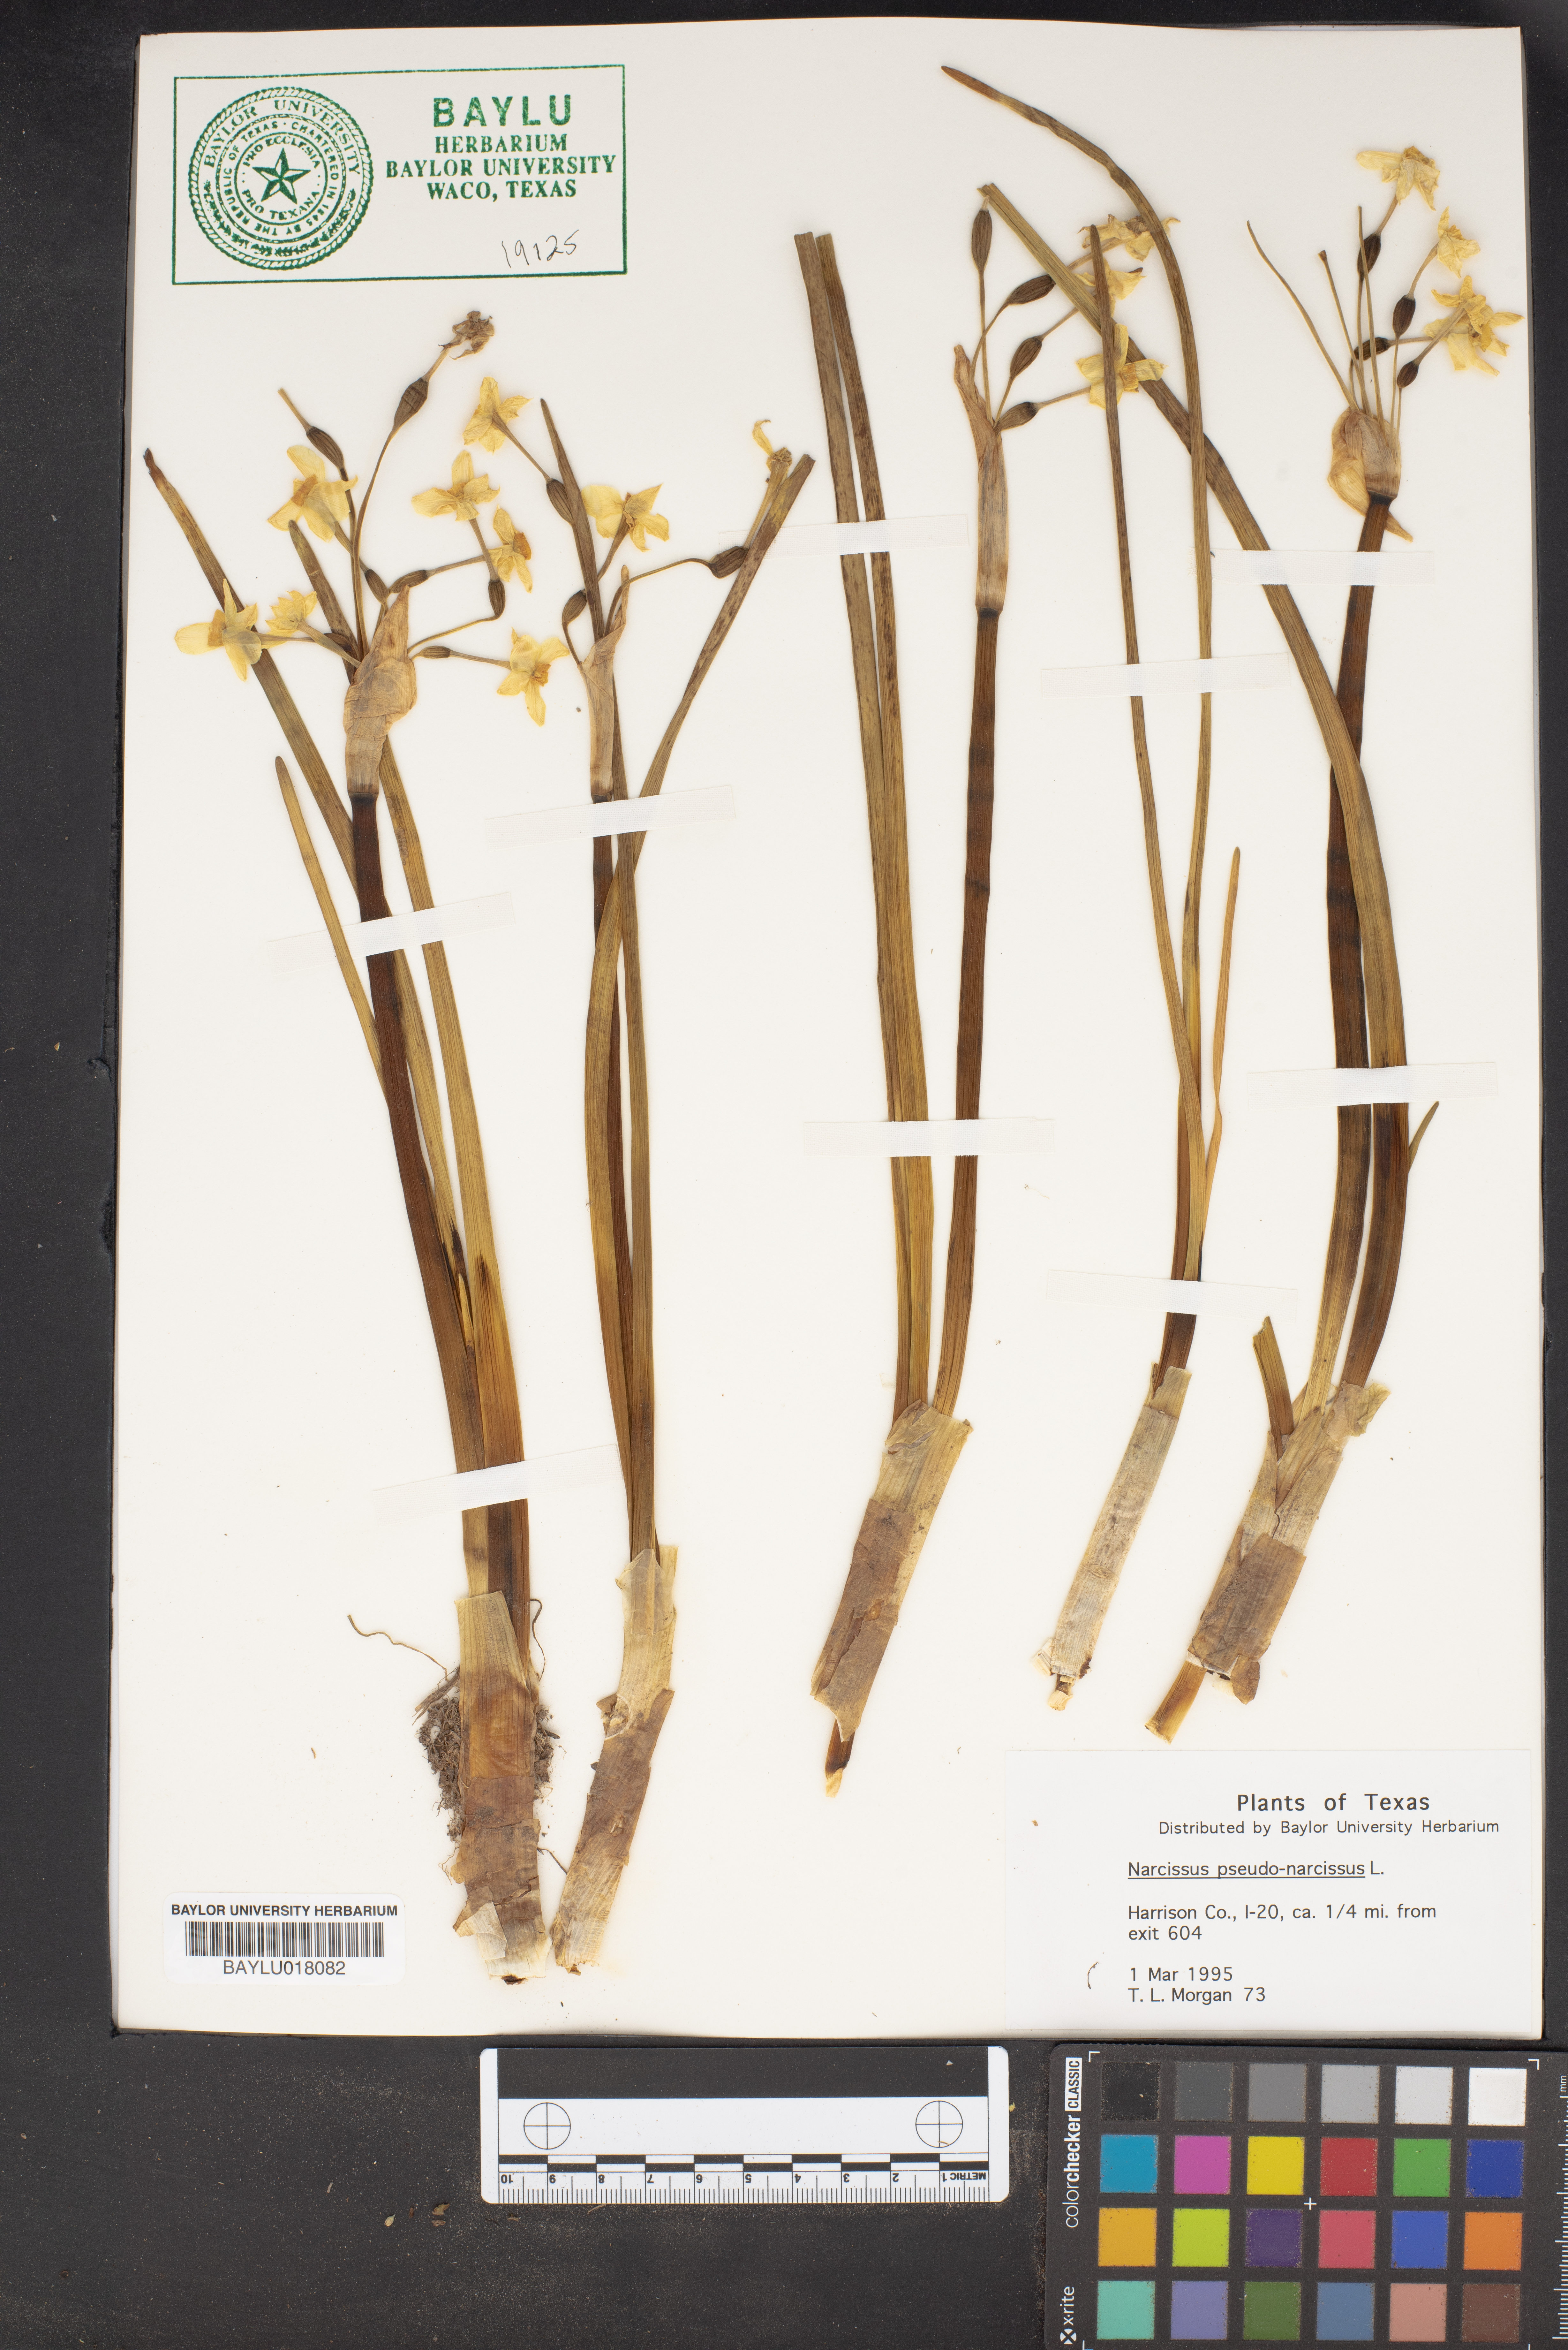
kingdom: Plantae
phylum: Tracheophyta
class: Liliopsida
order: Asparagales
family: Amaryllidaceae
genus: Narcissus
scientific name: Narcissus pseudonarcissus
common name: Daffodil
